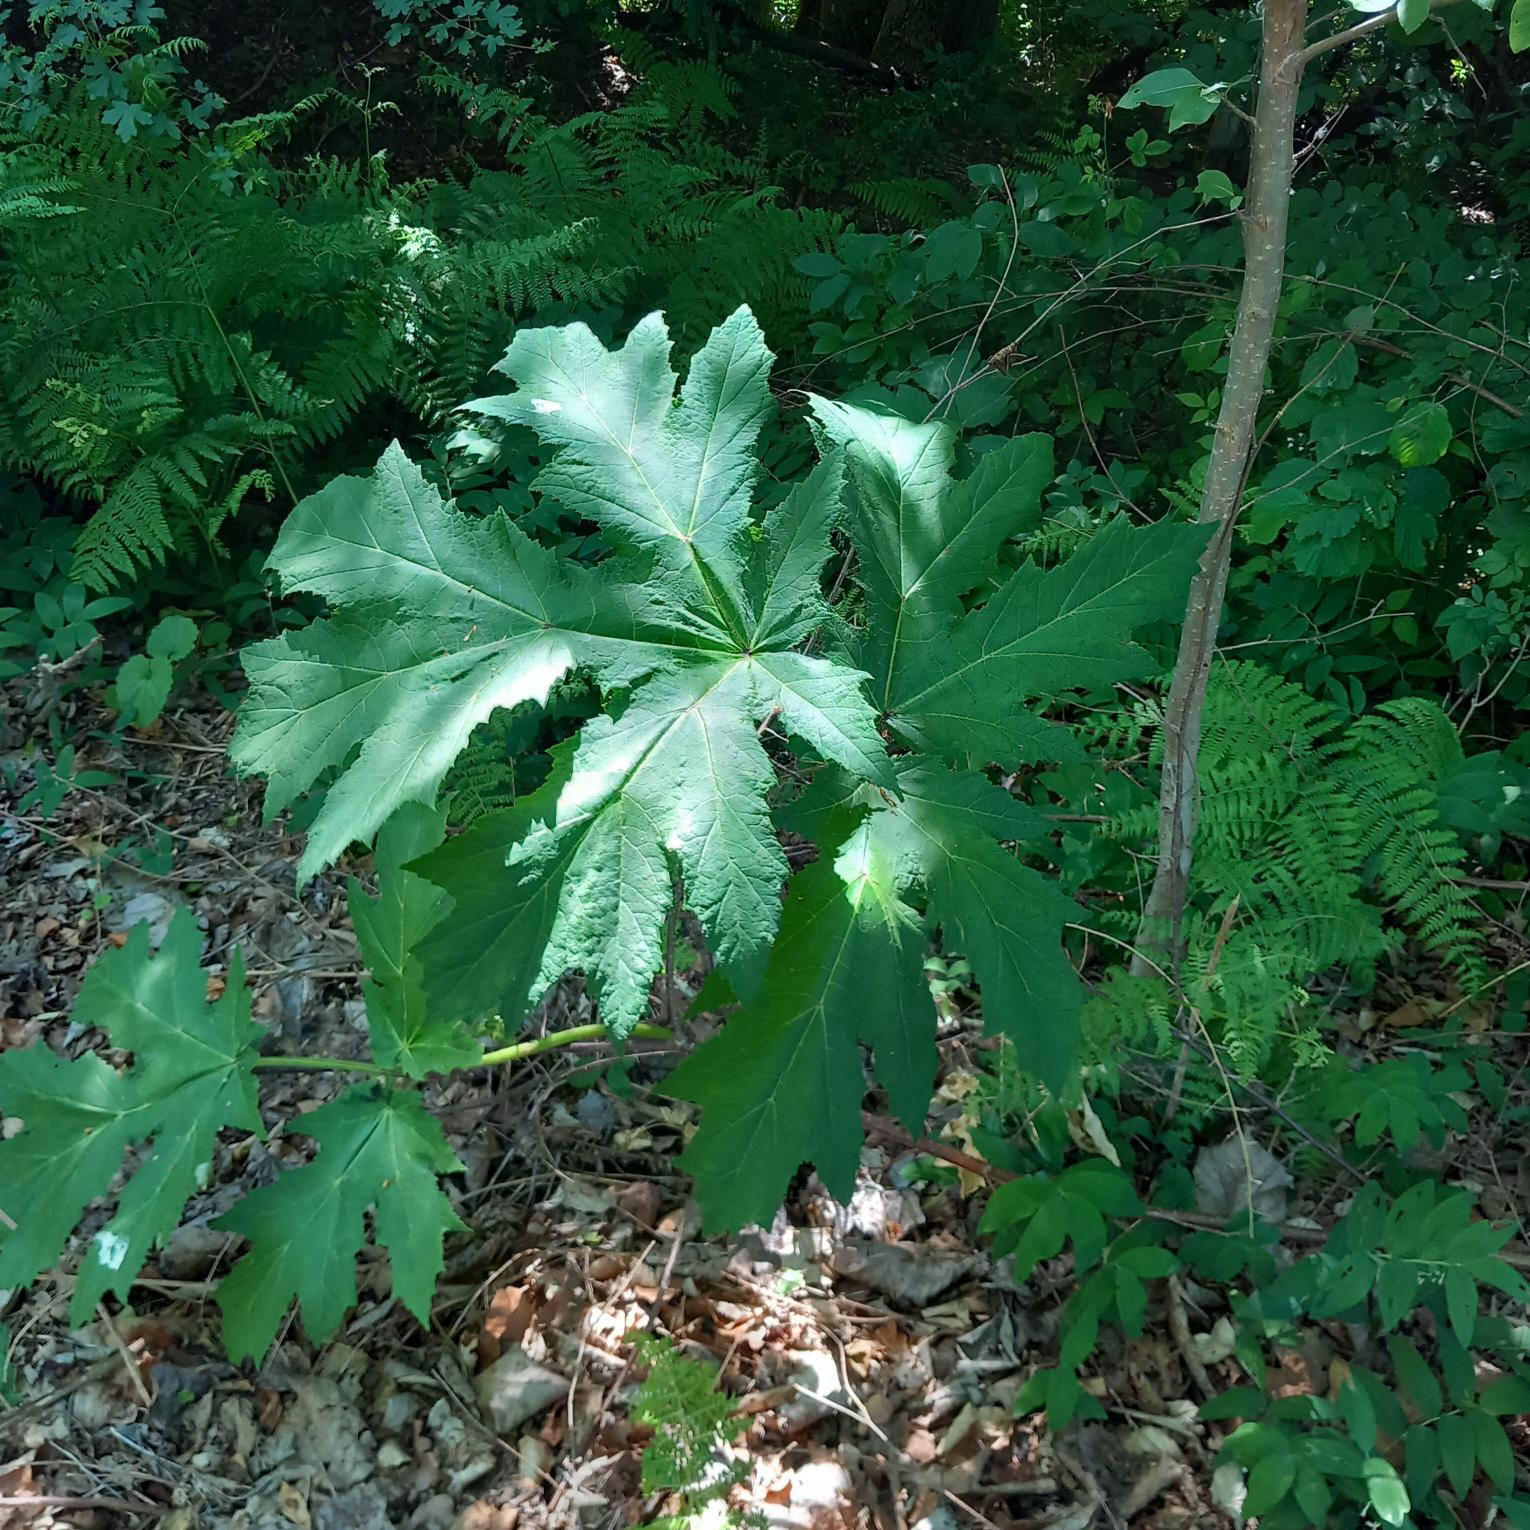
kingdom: Plantae
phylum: Tracheophyta
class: Magnoliopsida
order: Apiales
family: Apiaceae
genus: Heracleum
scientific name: Heracleum mantegazzianum
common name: Kæmpe-bjørneklo
